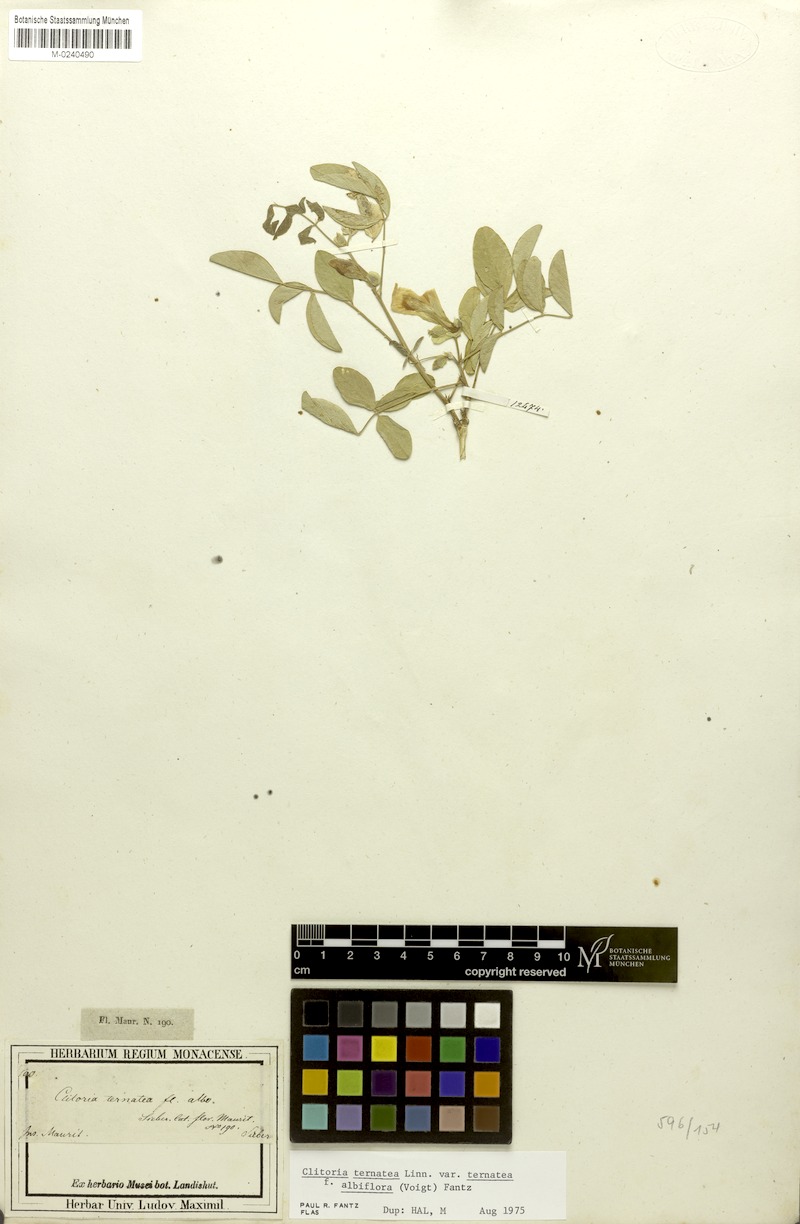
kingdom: Plantae
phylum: Tracheophyta
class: Magnoliopsida
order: Fabales
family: Fabaceae
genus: Clitoria
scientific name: Clitoria ternatea
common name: Asian pigeonwings
